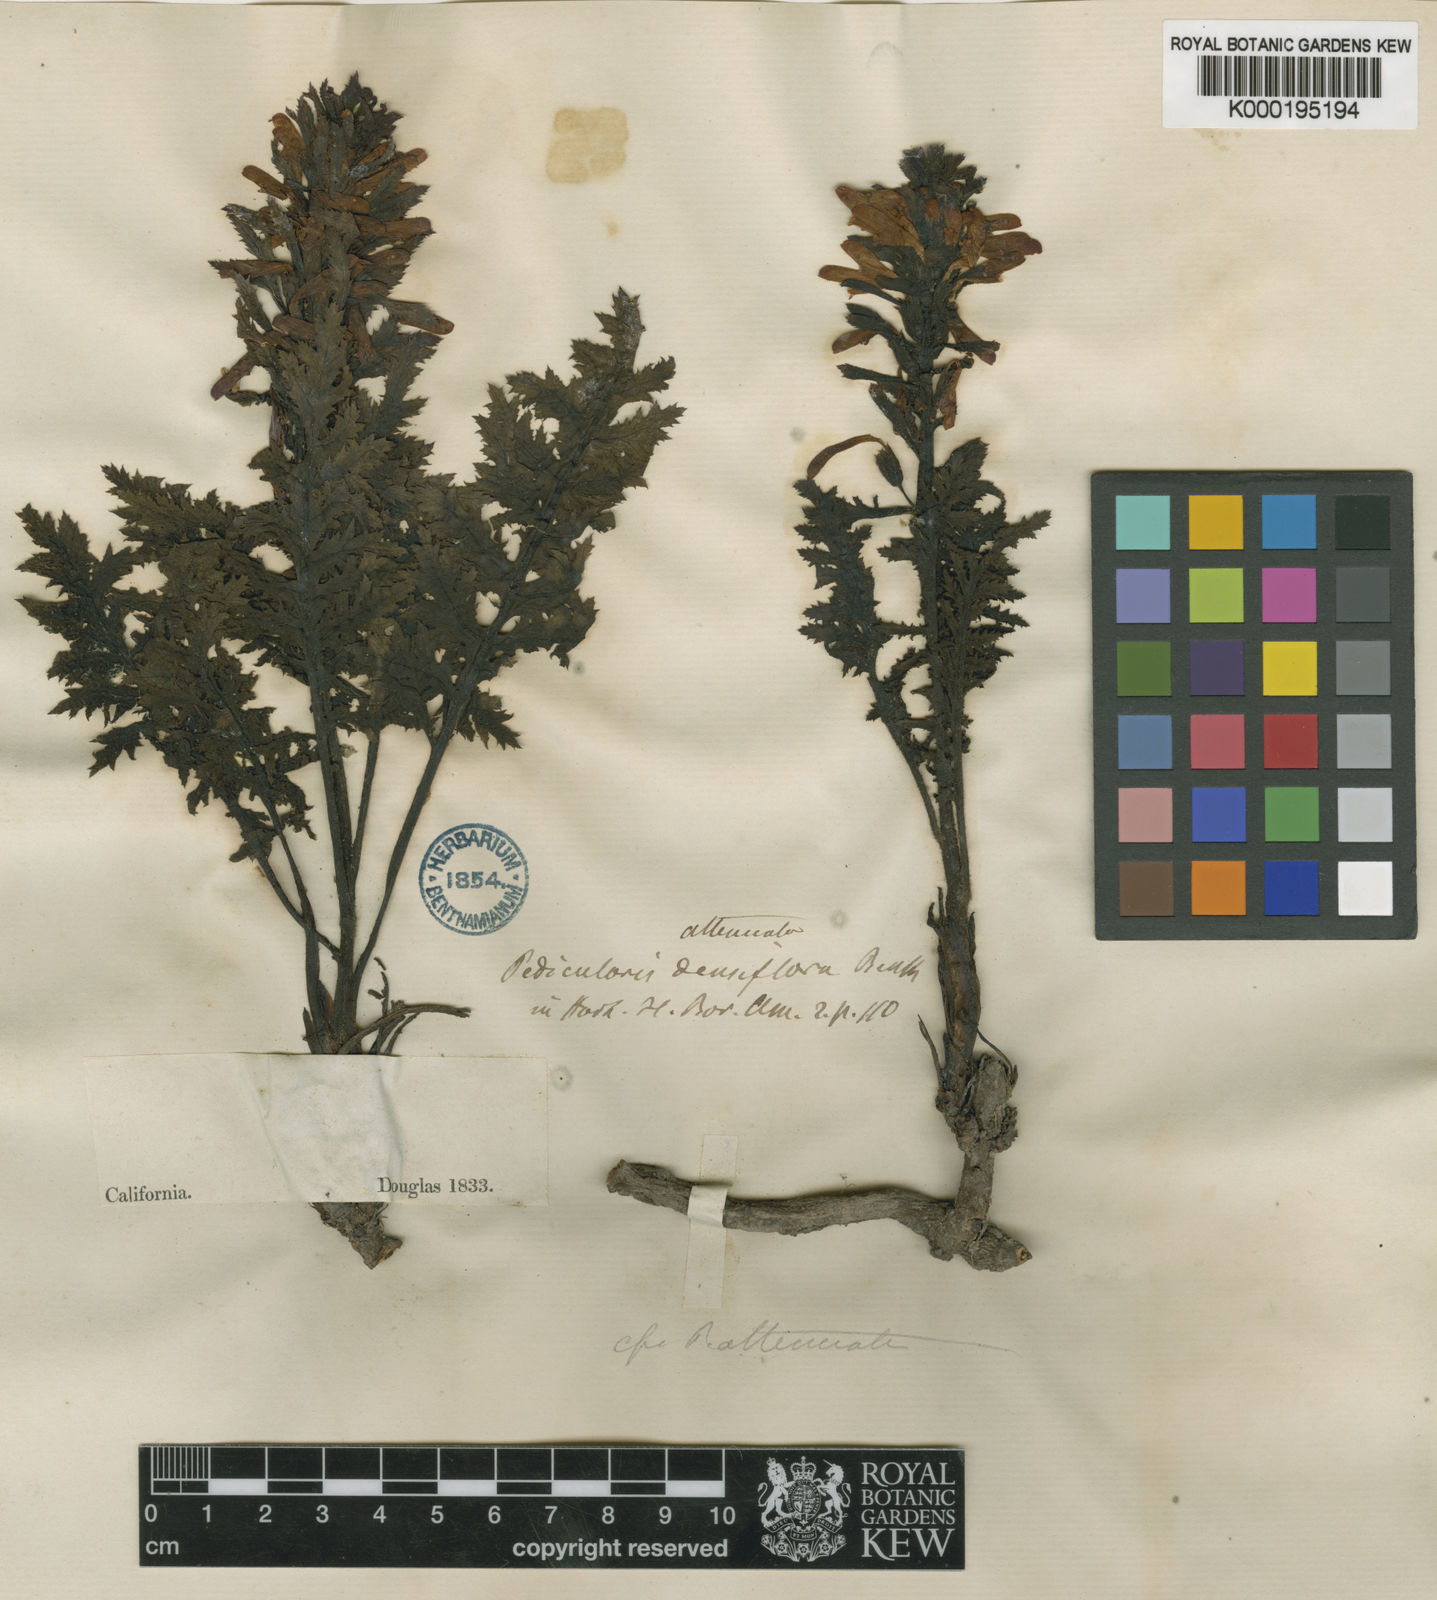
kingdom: Plantae
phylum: Tracheophyta
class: Magnoliopsida
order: Lamiales
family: Orobanchaceae
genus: Pedicularis
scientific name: Pedicularis densiflora
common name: Indian warrior
